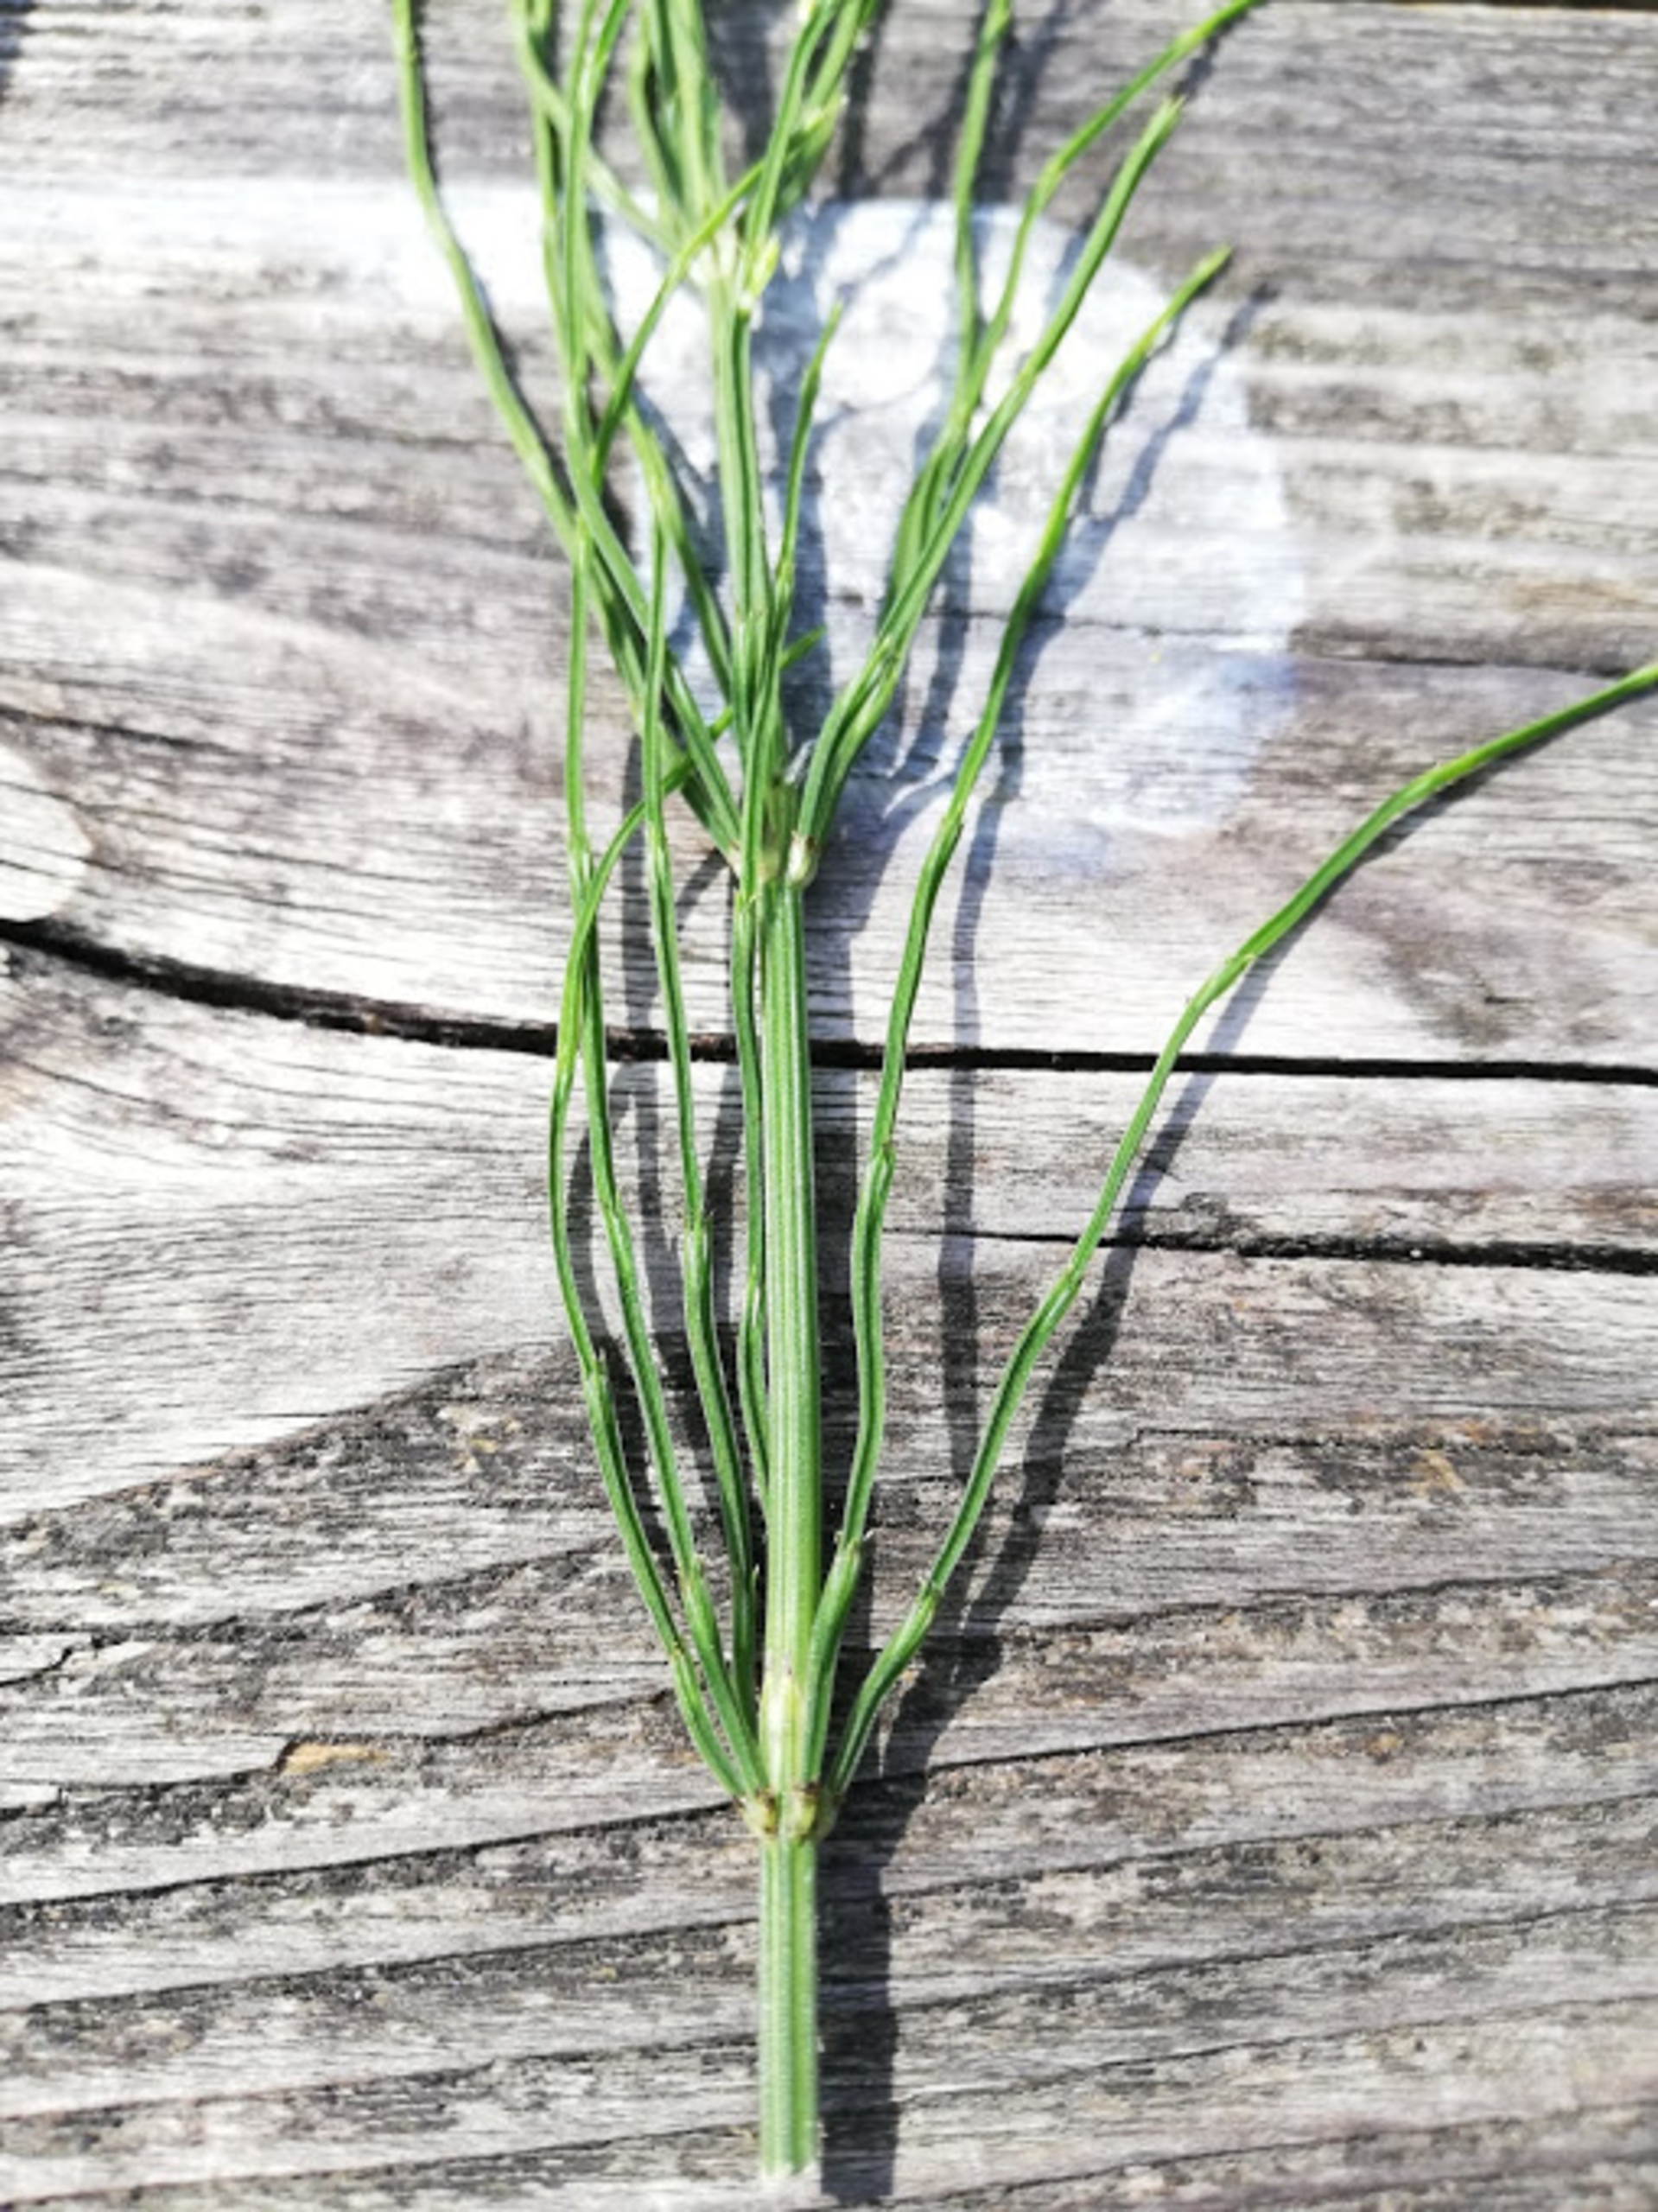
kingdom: Plantae
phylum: Tracheophyta
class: Polypodiopsida
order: Equisetales
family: Equisetaceae
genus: Equisetum
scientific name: Equisetum arvense
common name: Ager-padderok
